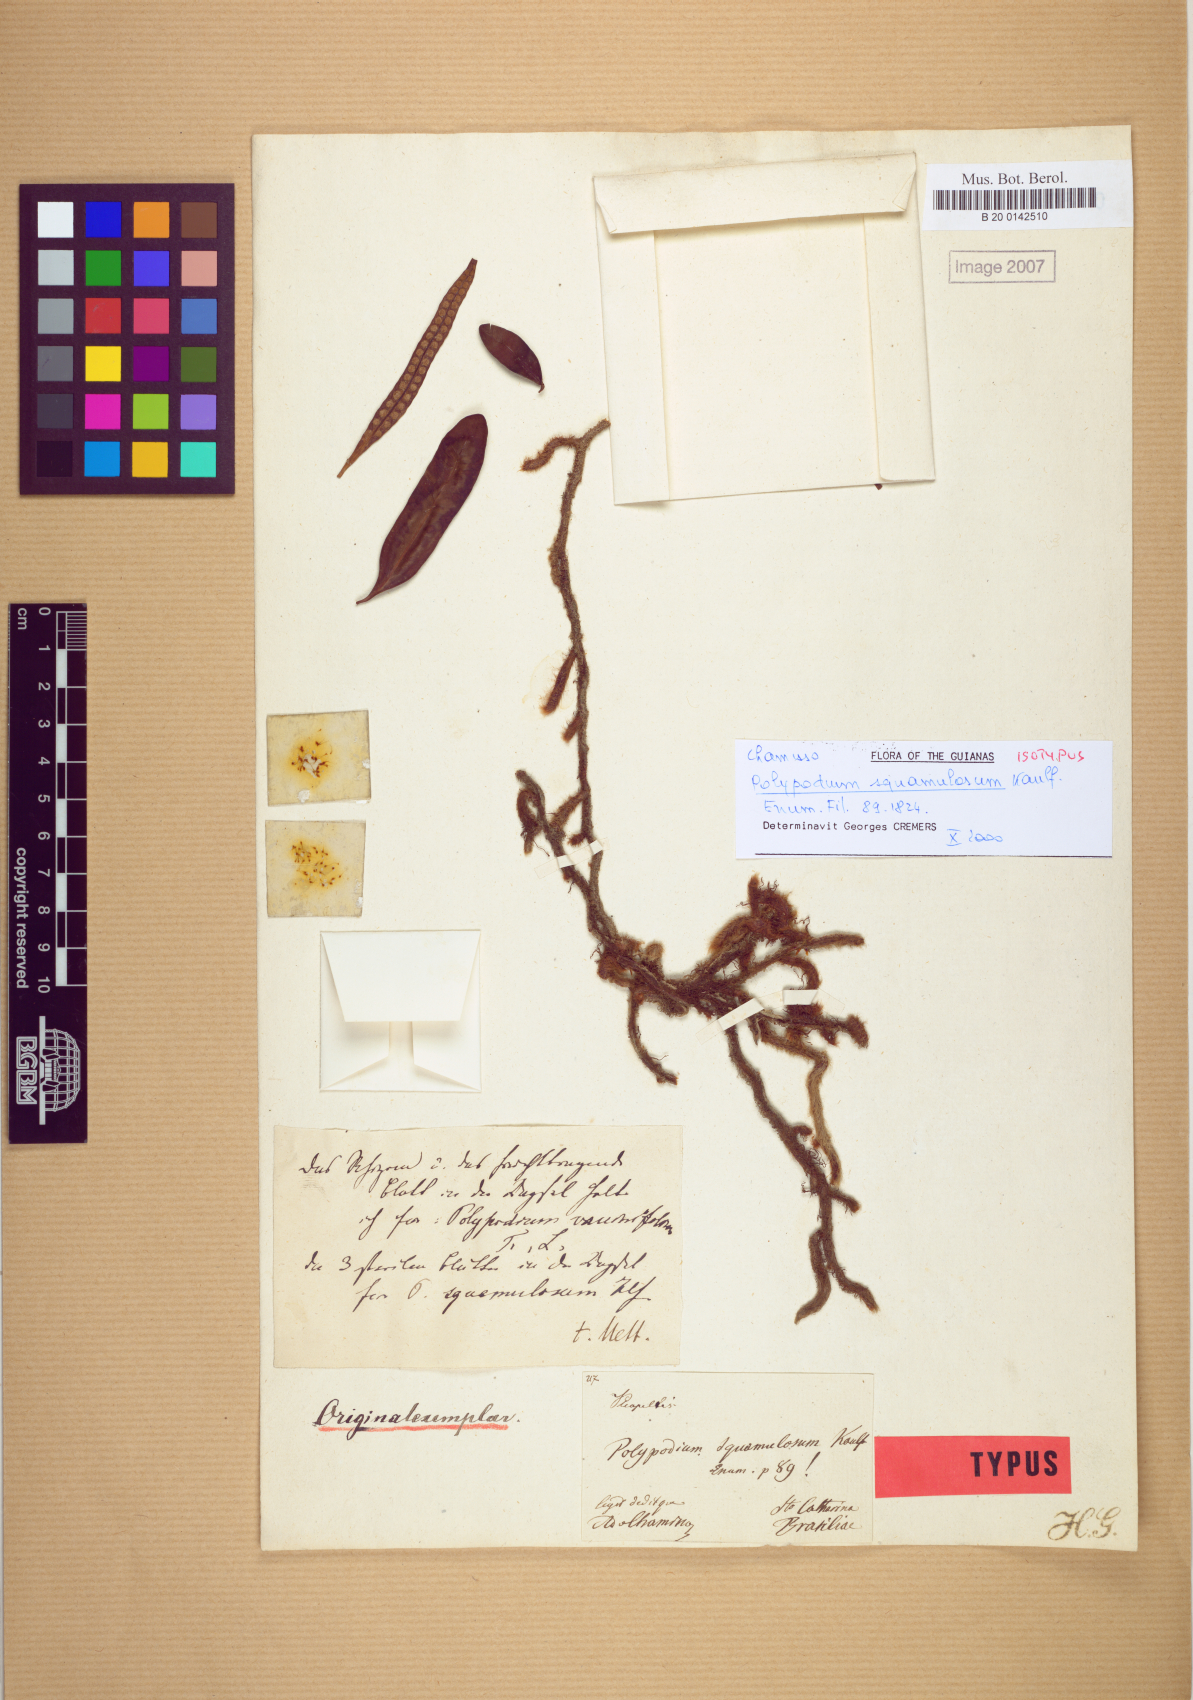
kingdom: Plantae
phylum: Tracheophyta
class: Polypodiopsida
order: Polypodiales
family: Polypodiaceae
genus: Microgramma
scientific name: Microgramma squamulosa
